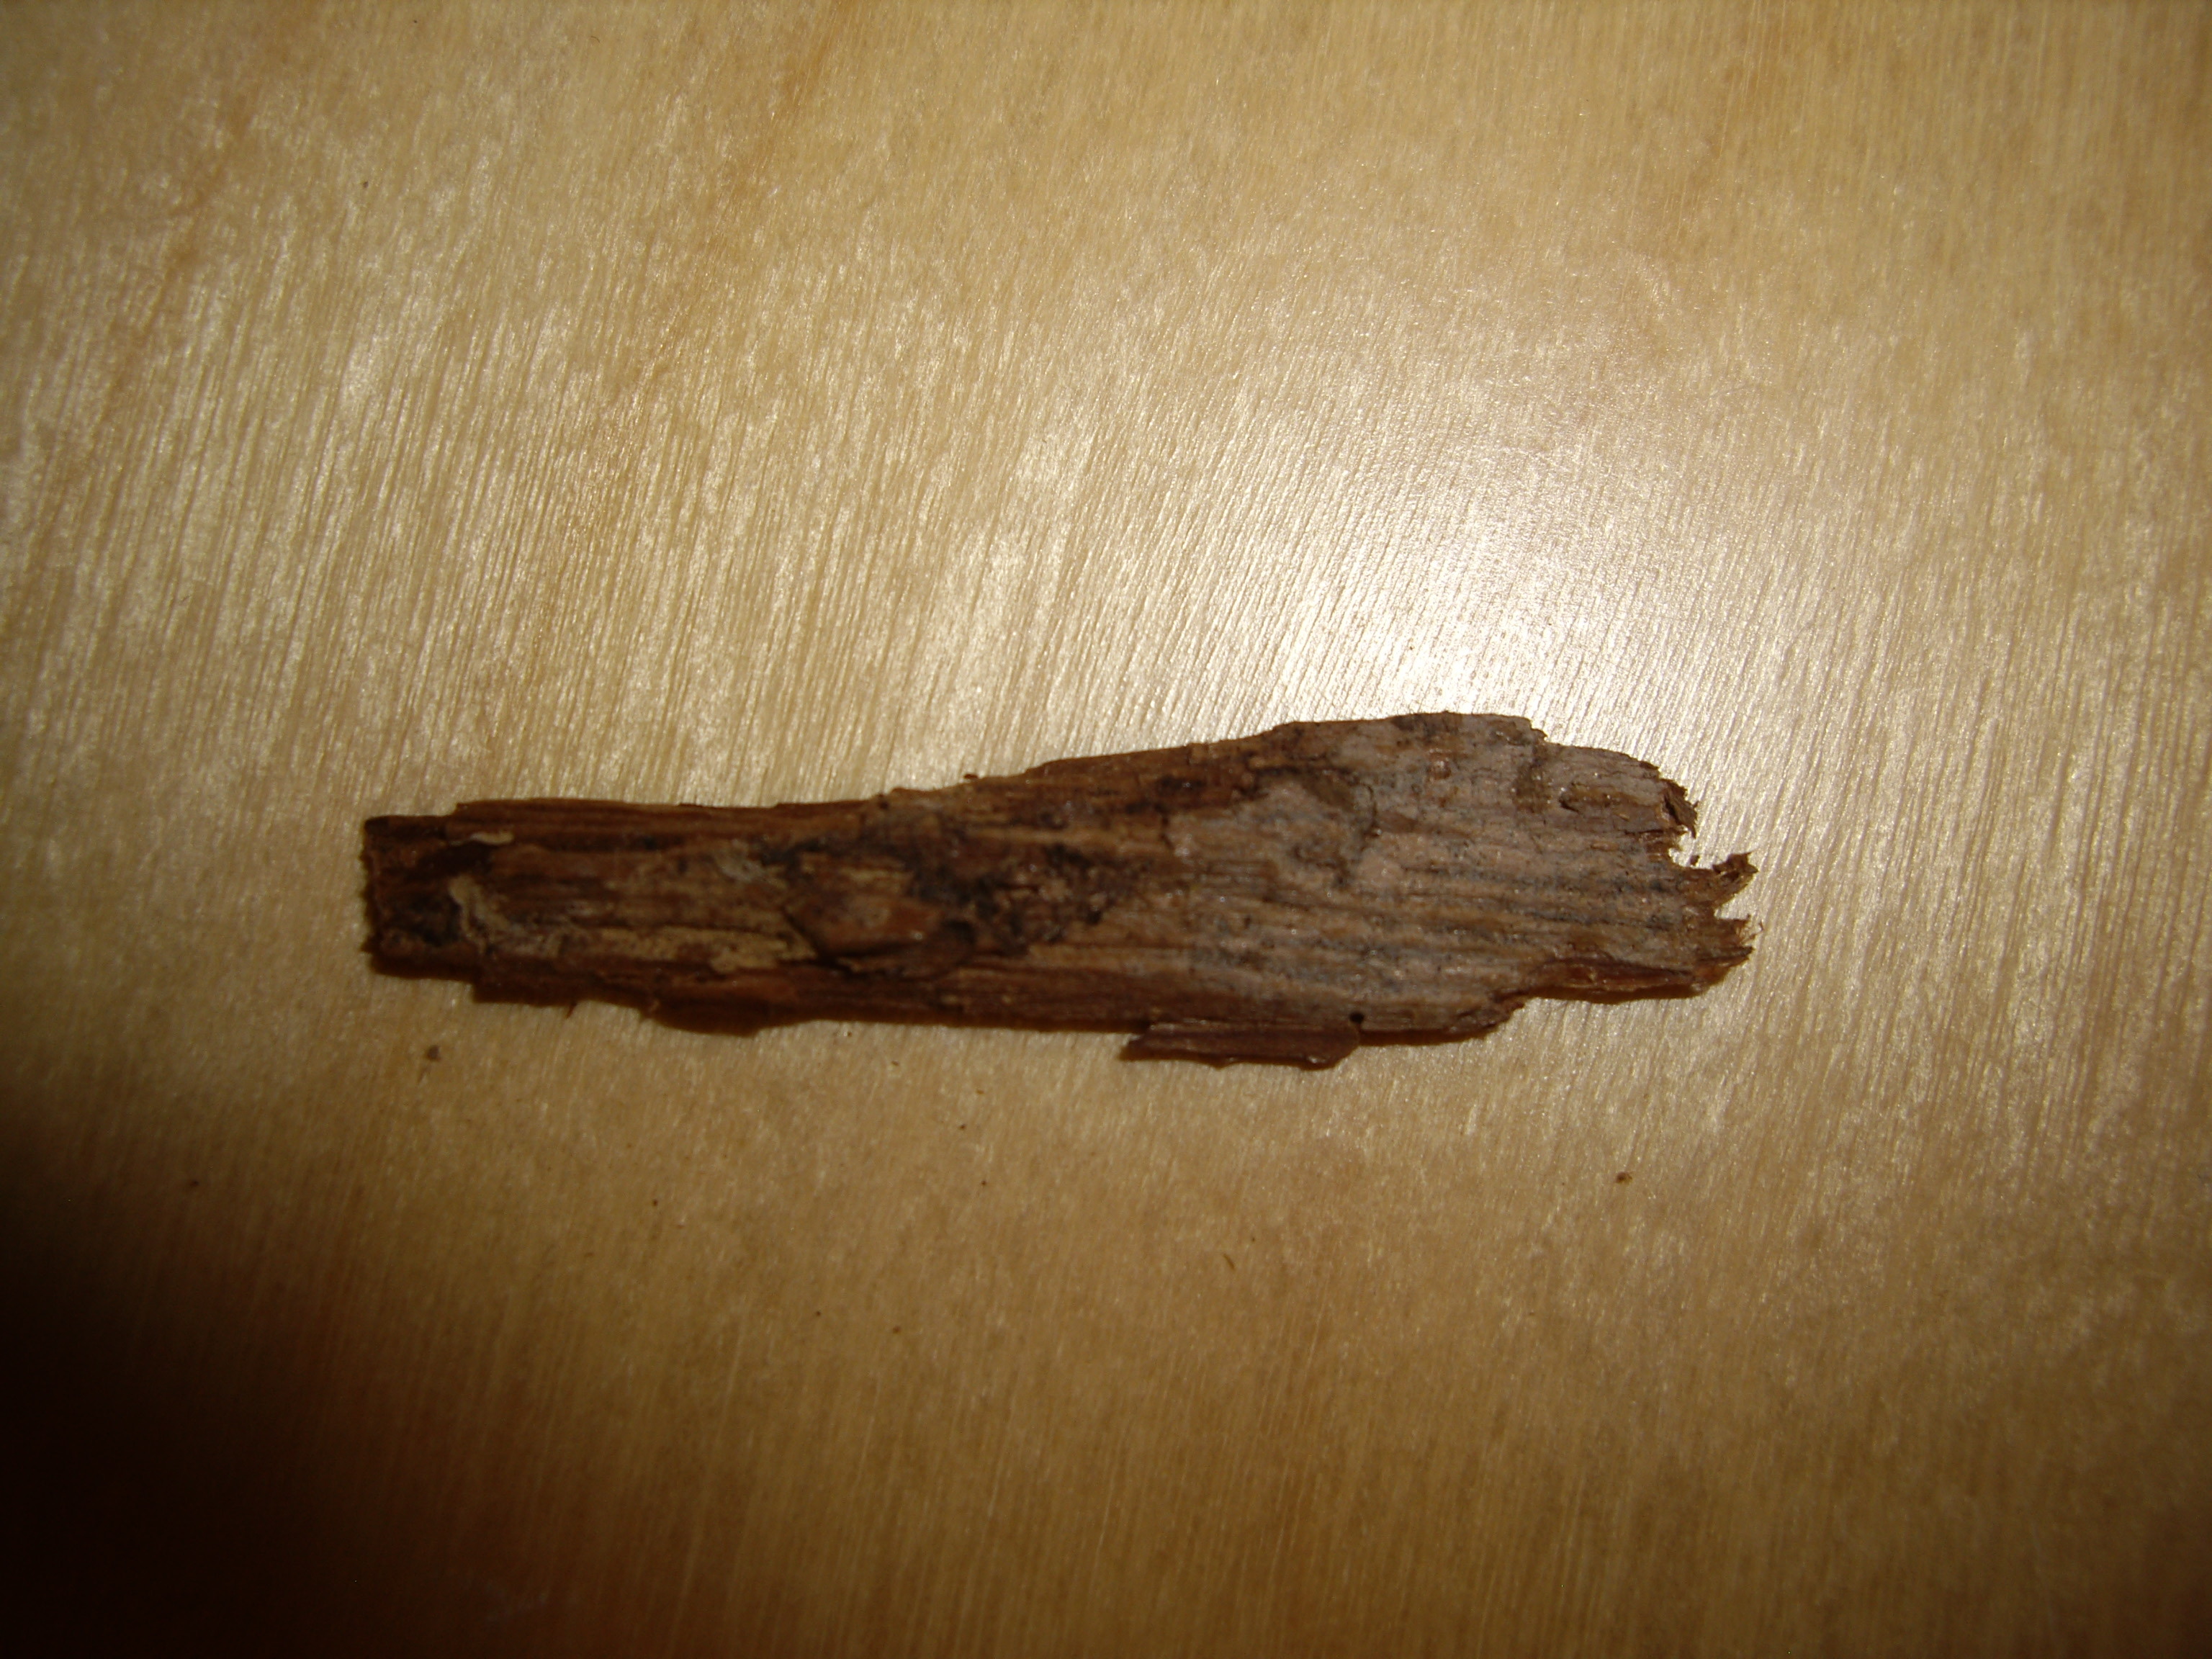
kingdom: Fungi
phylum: Basidiomycota
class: Agaricomycetes
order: Cantharellales
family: Hydnaceae
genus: Paullicorticium
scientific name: Paullicorticium pearsonii
